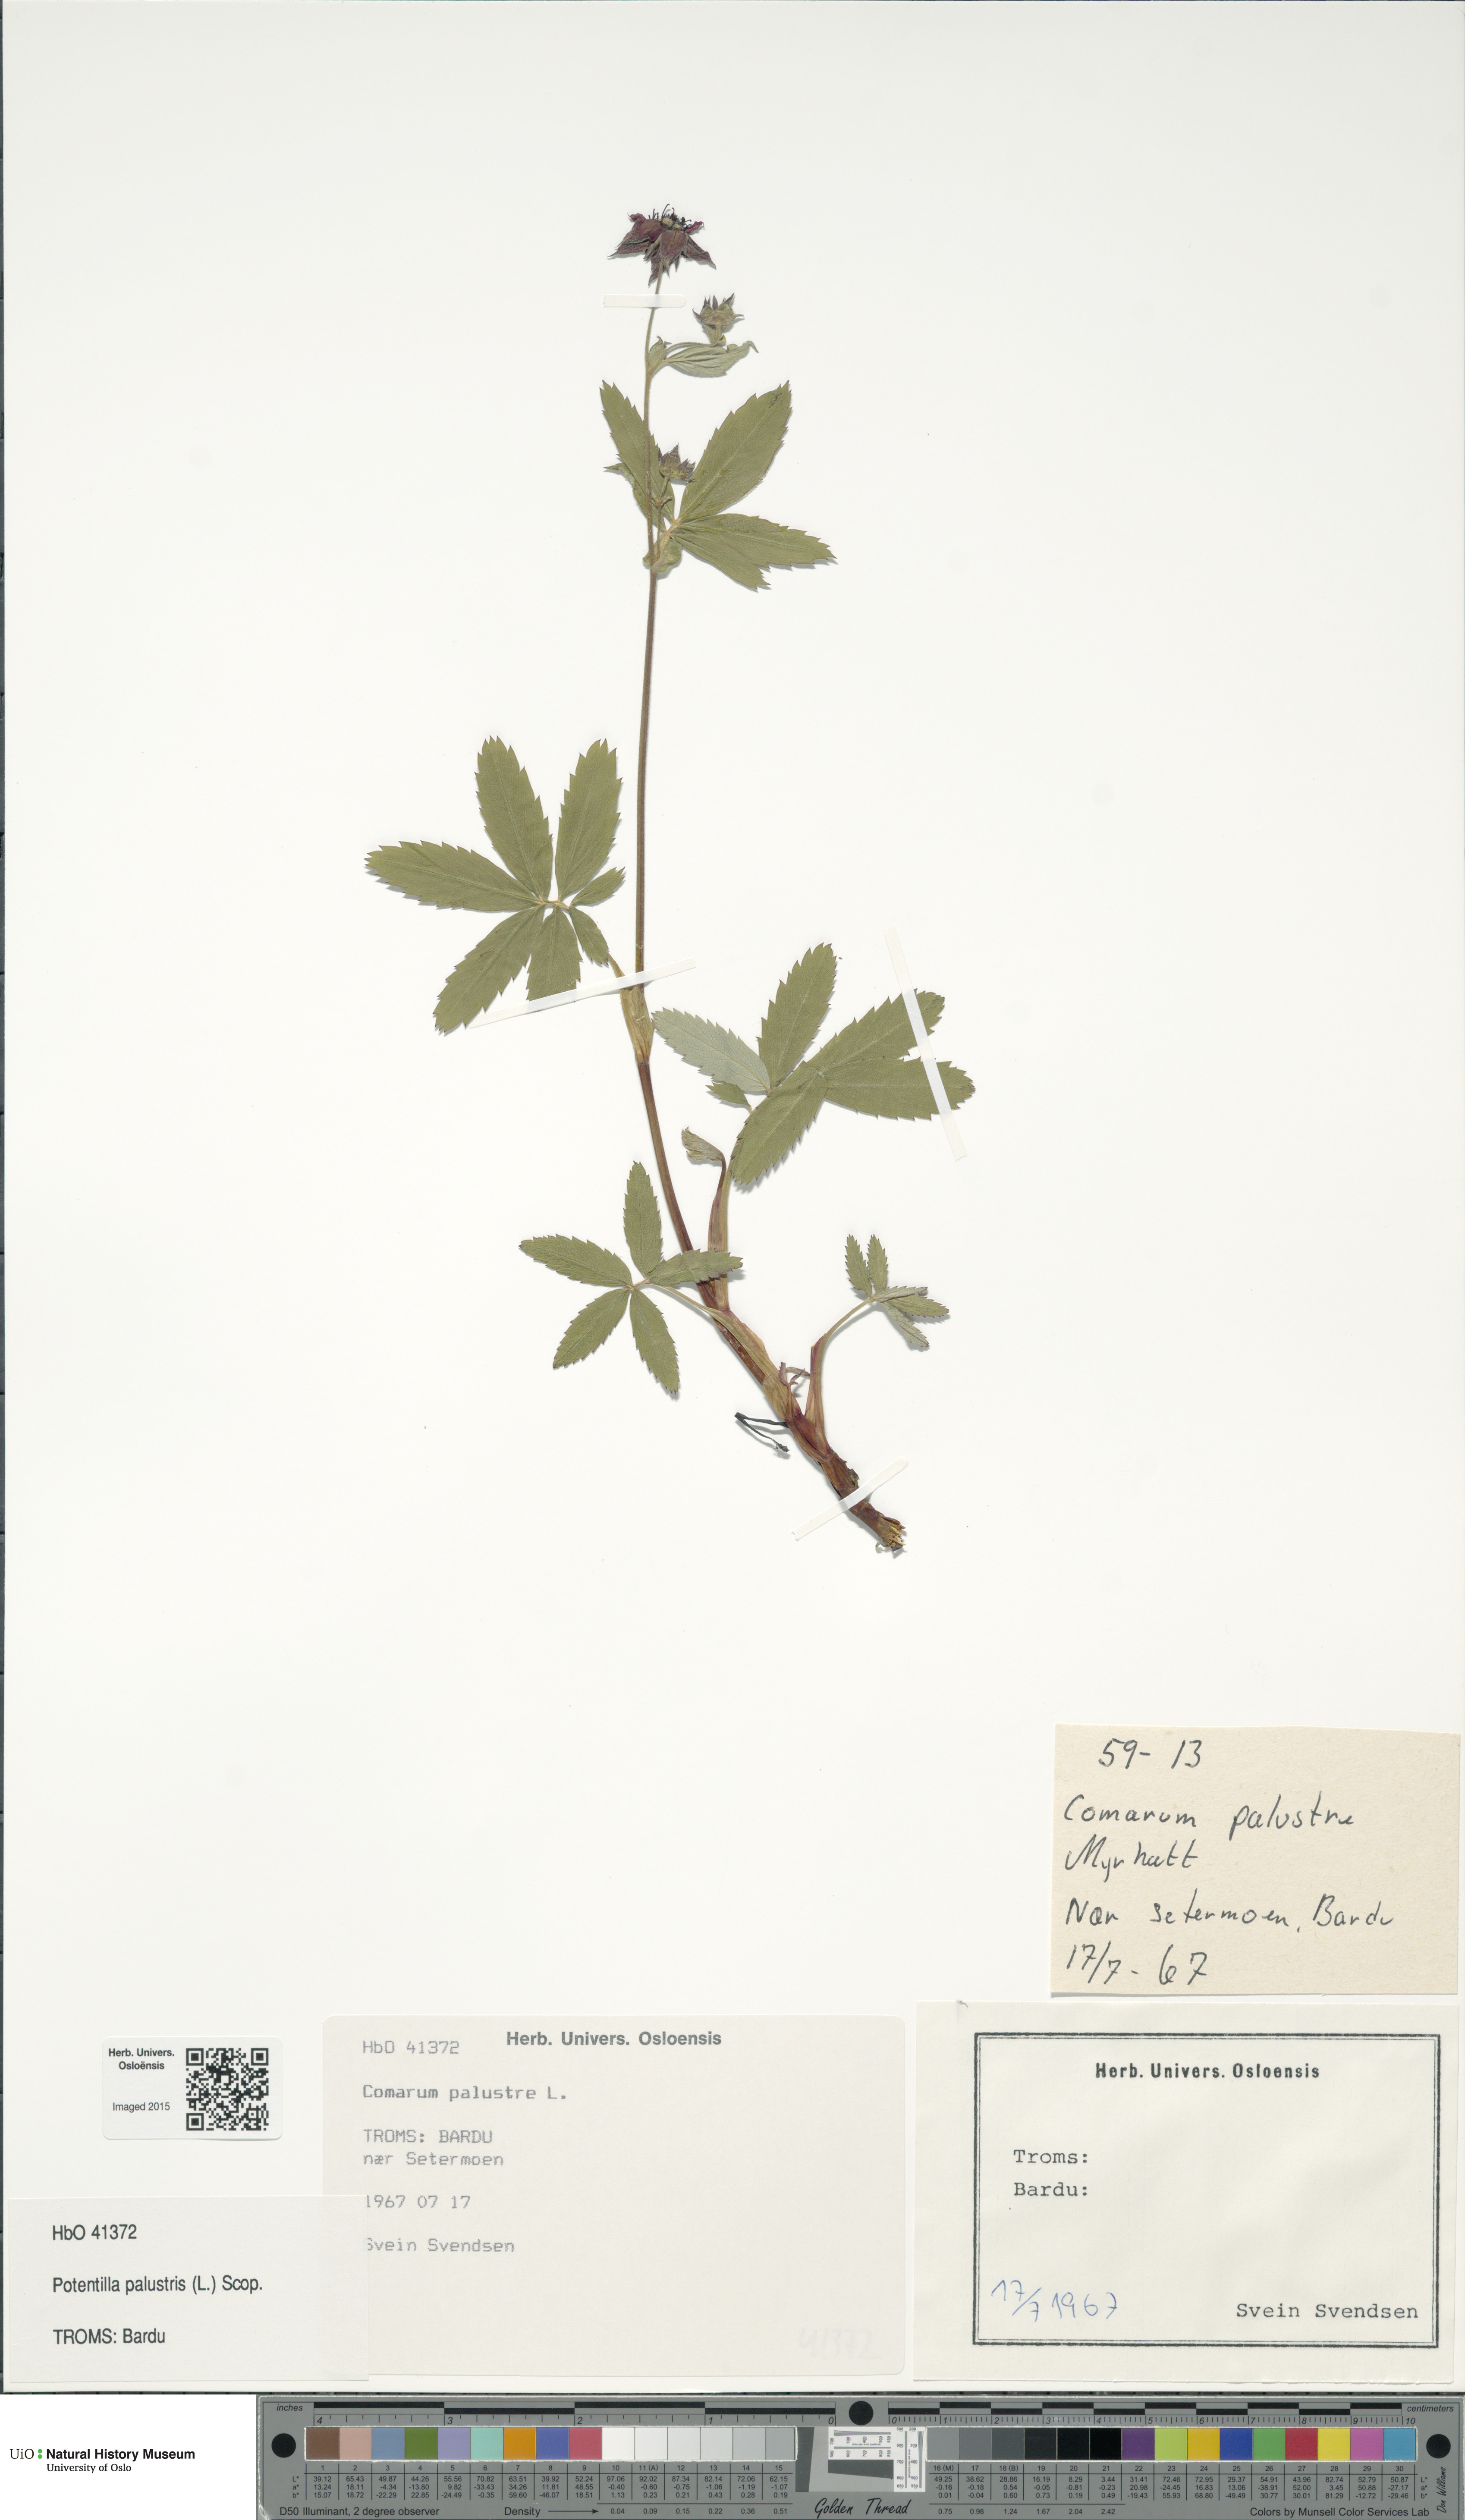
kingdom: Plantae
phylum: Tracheophyta
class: Magnoliopsida
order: Rosales
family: Rosaceae
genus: Comarum
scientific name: Comarum palustre
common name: Marsh cinquefoil
